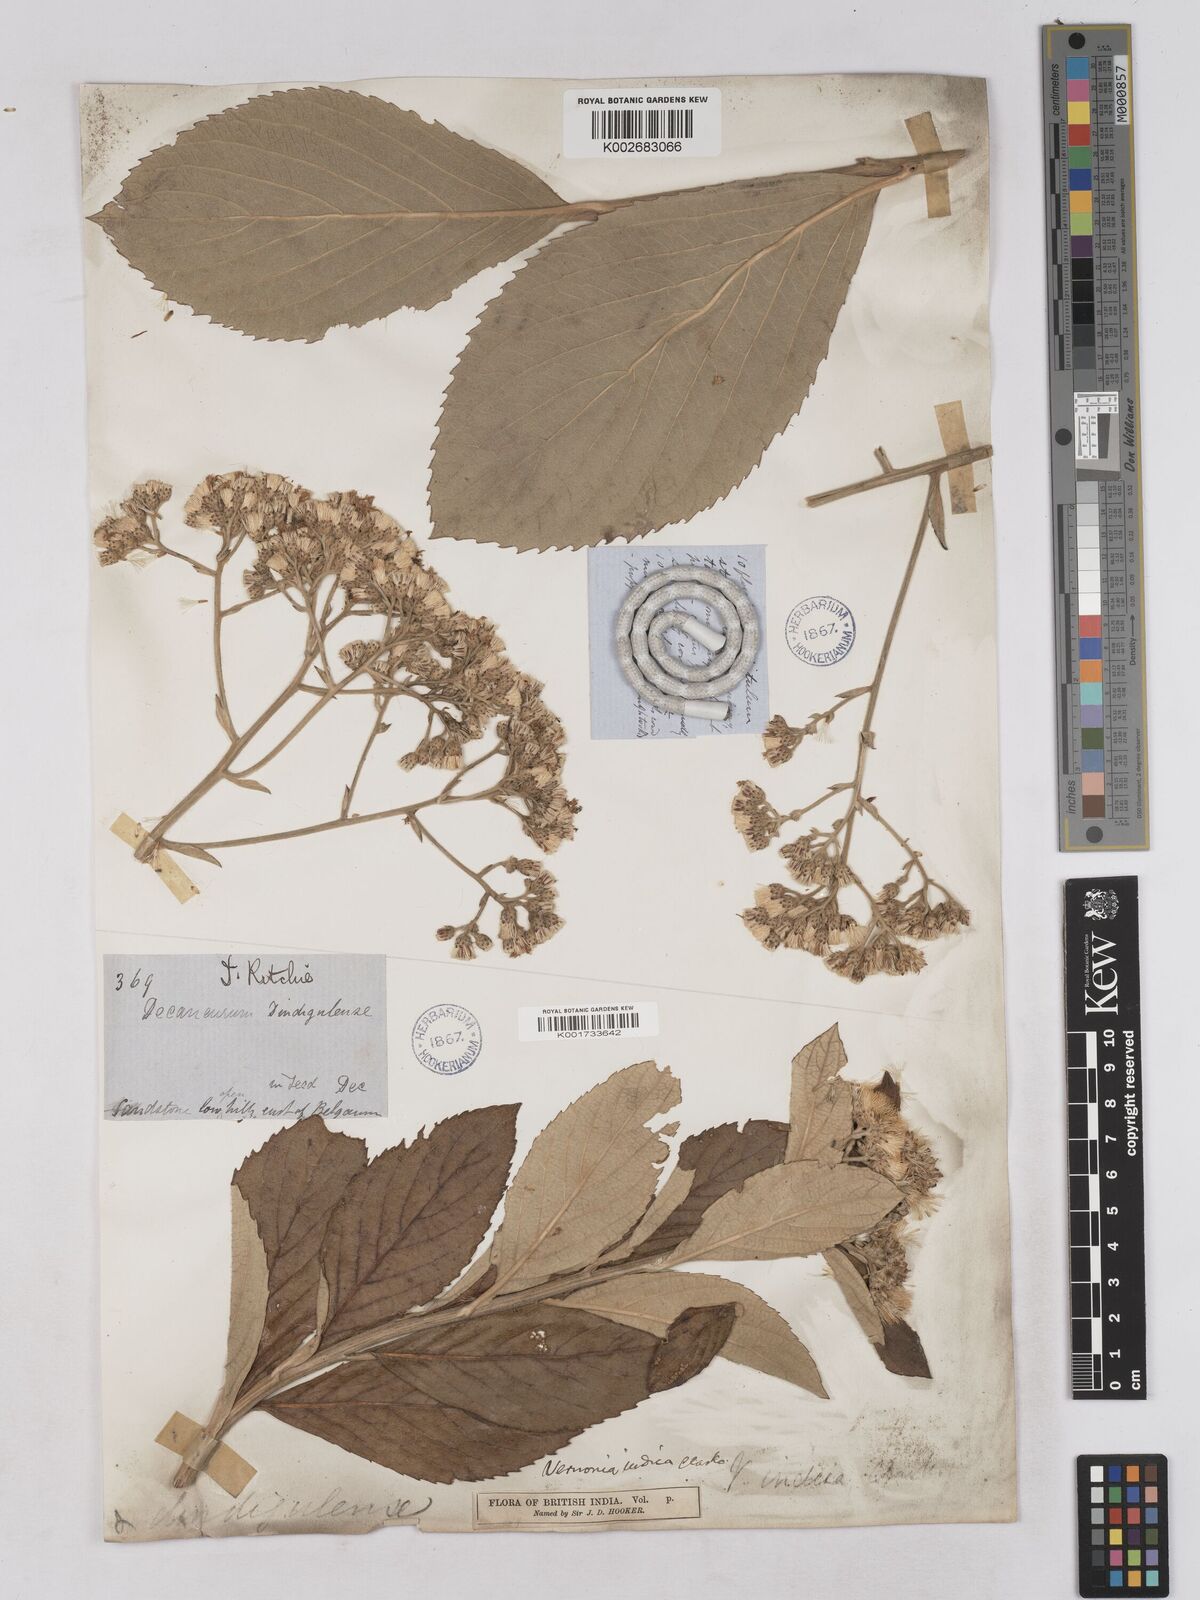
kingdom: Plantae
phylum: Tracheophyta
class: Magnoliopsida
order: Asterales
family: Asteraceae
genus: Acilepis
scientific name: Acilepis dendigulensis
